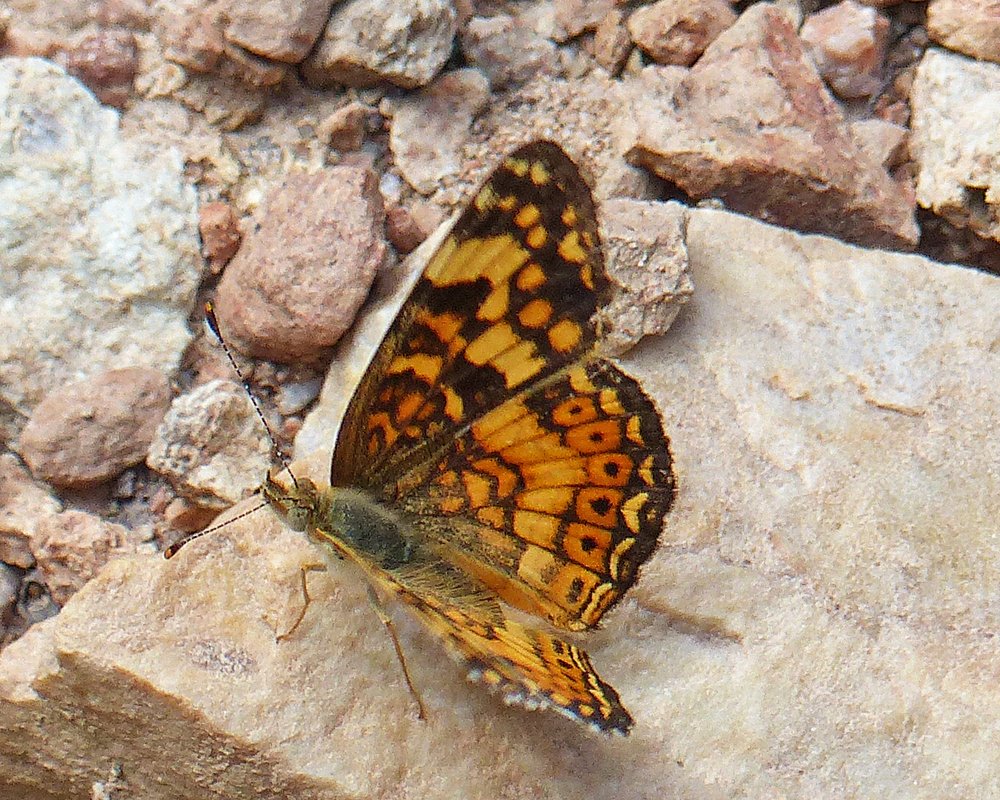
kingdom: Animalia
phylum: Arthropoda
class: Insecta
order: Lepidoptera
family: Nymphalidae
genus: Eresia
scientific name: Eresia aveyrona
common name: Mylitta Crescent
